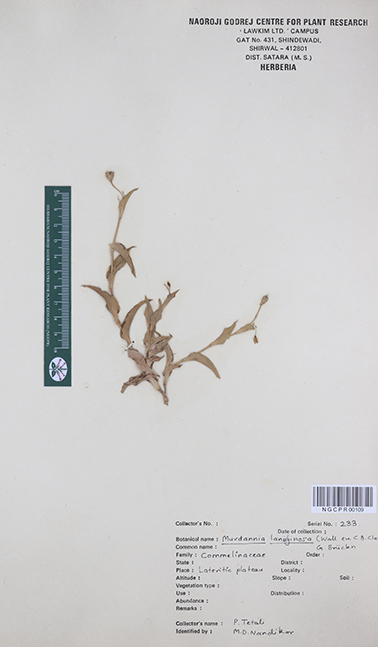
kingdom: Plantae
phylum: Tracheophyta
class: Liliopsida
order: Commelinales
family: Commelinaceae
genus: Murdannia
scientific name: Murdannia lanuginosa
